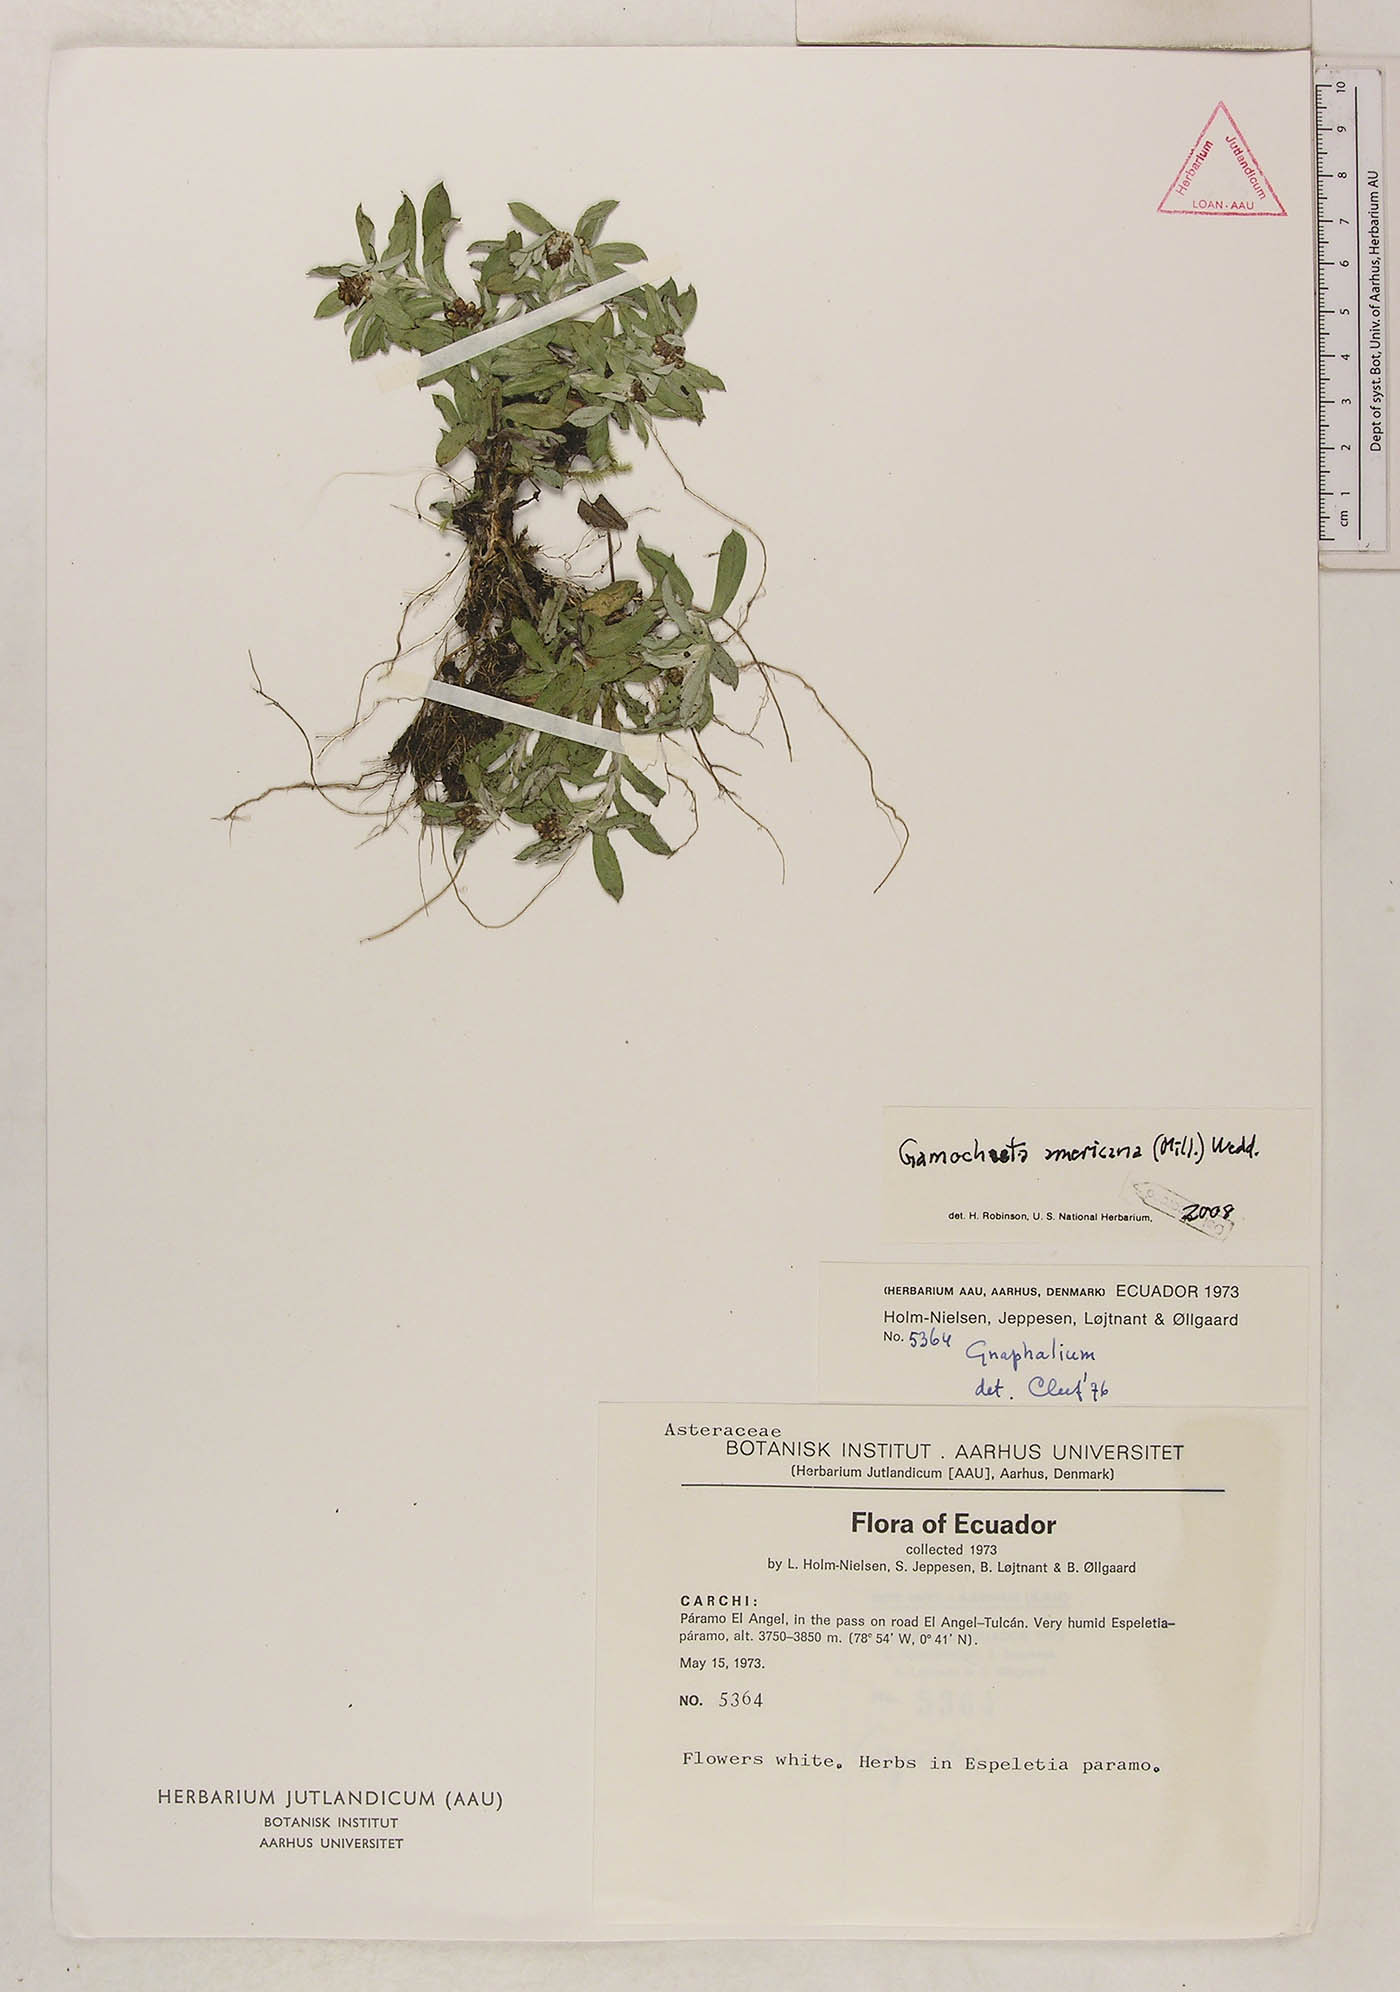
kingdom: Plantae
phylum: Tracheophyta
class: Magnoliopsida
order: Asterales
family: Asteraceae
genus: Gamochaeta
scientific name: Gamochaeta americana
